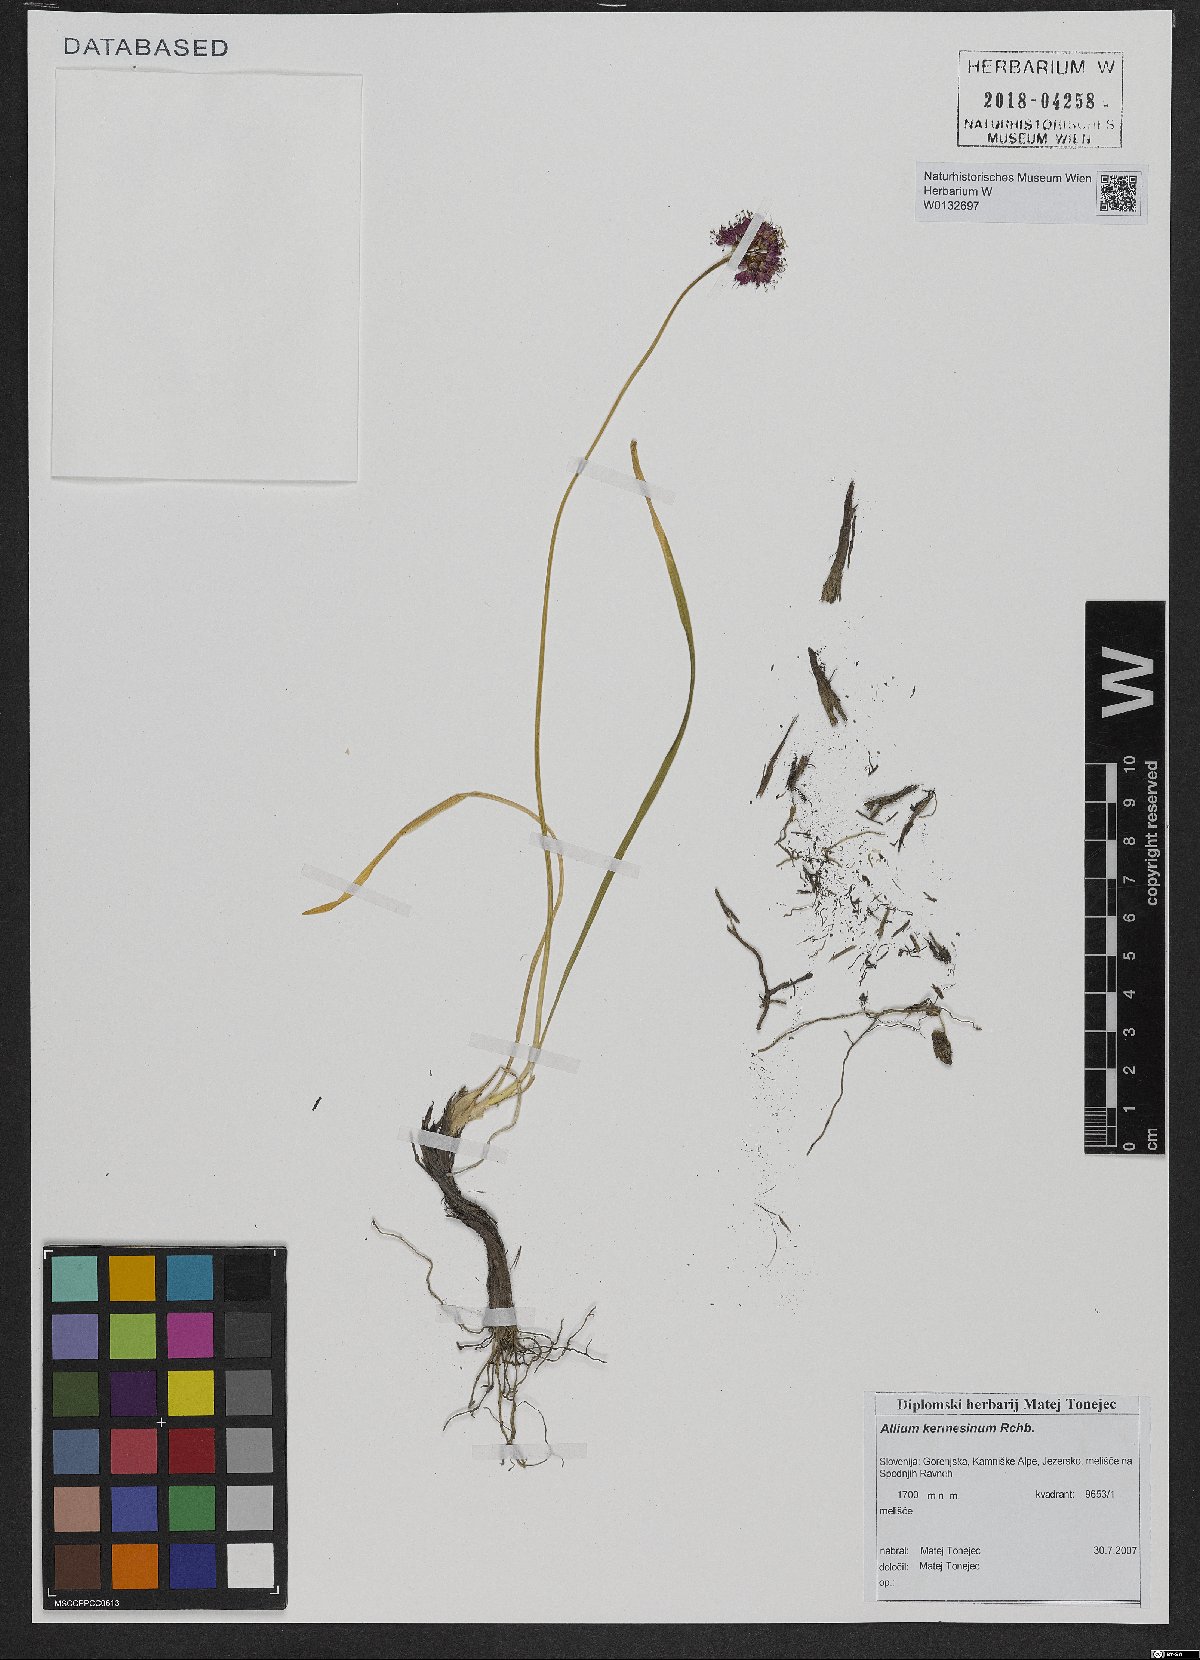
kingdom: Plantae
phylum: Tracheophyta
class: Liliopsida
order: Asparagales
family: Amaryllidaceae
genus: Allium
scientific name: Allium kermesinum
